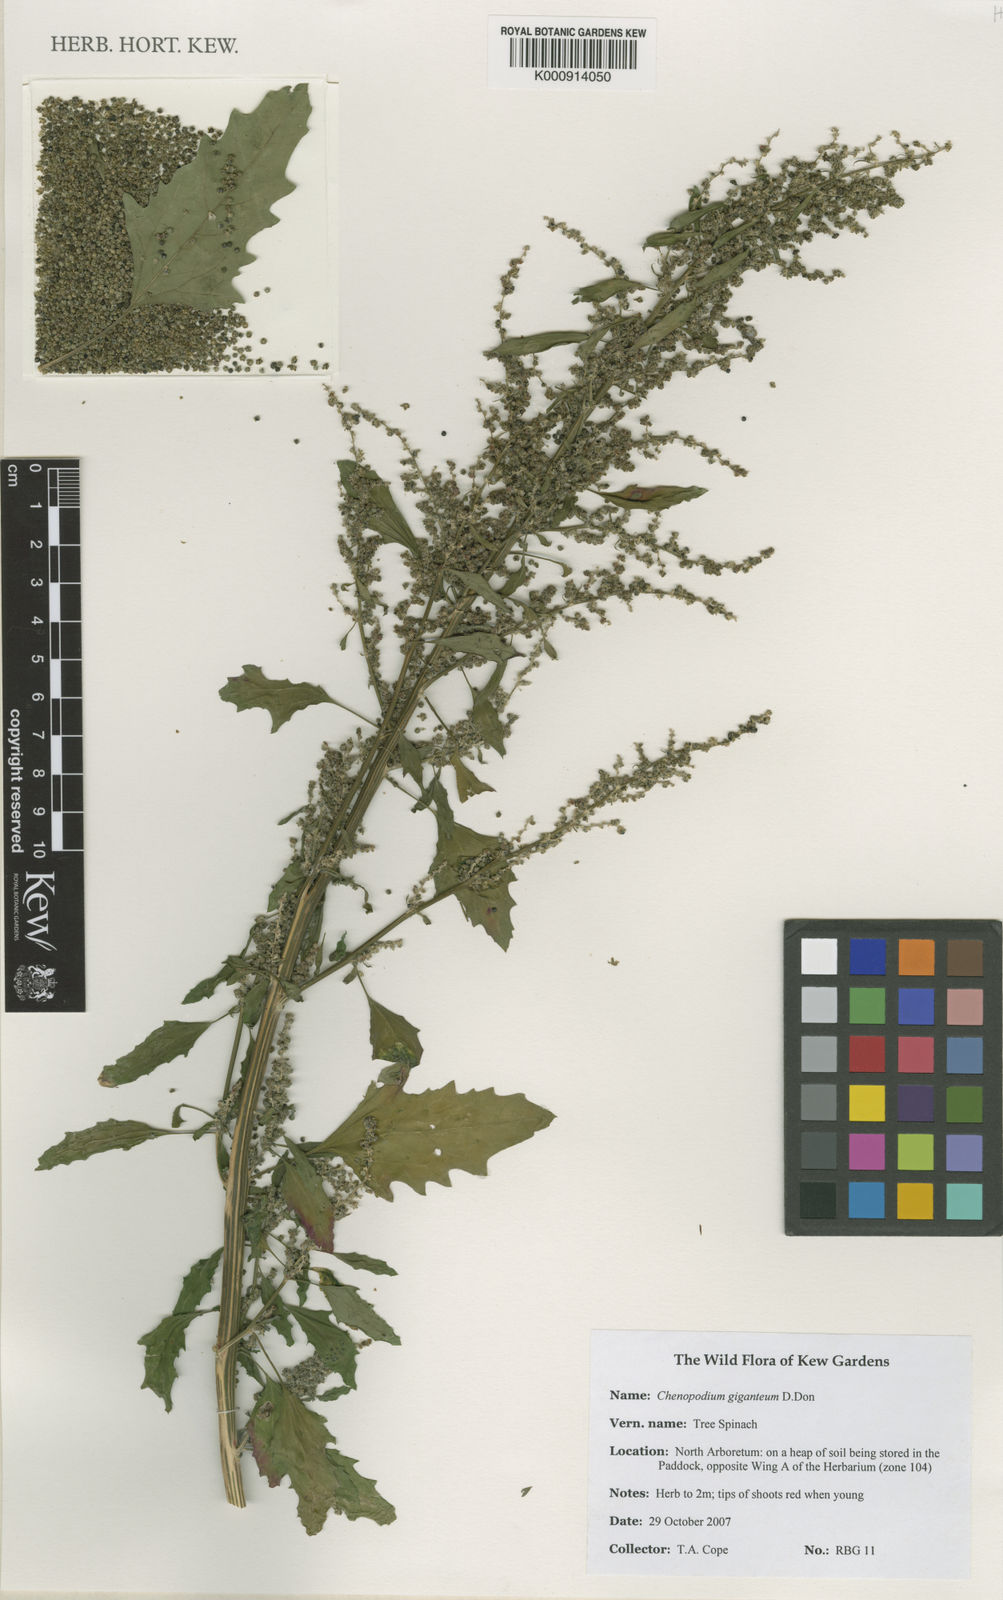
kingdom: Plantae
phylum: Tracheophyta
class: Magnoliopsida
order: Caryophyllales
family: Amaranthaceae
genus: Chenopodium
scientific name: Chenopodium giganteum
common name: Magentaspreen
